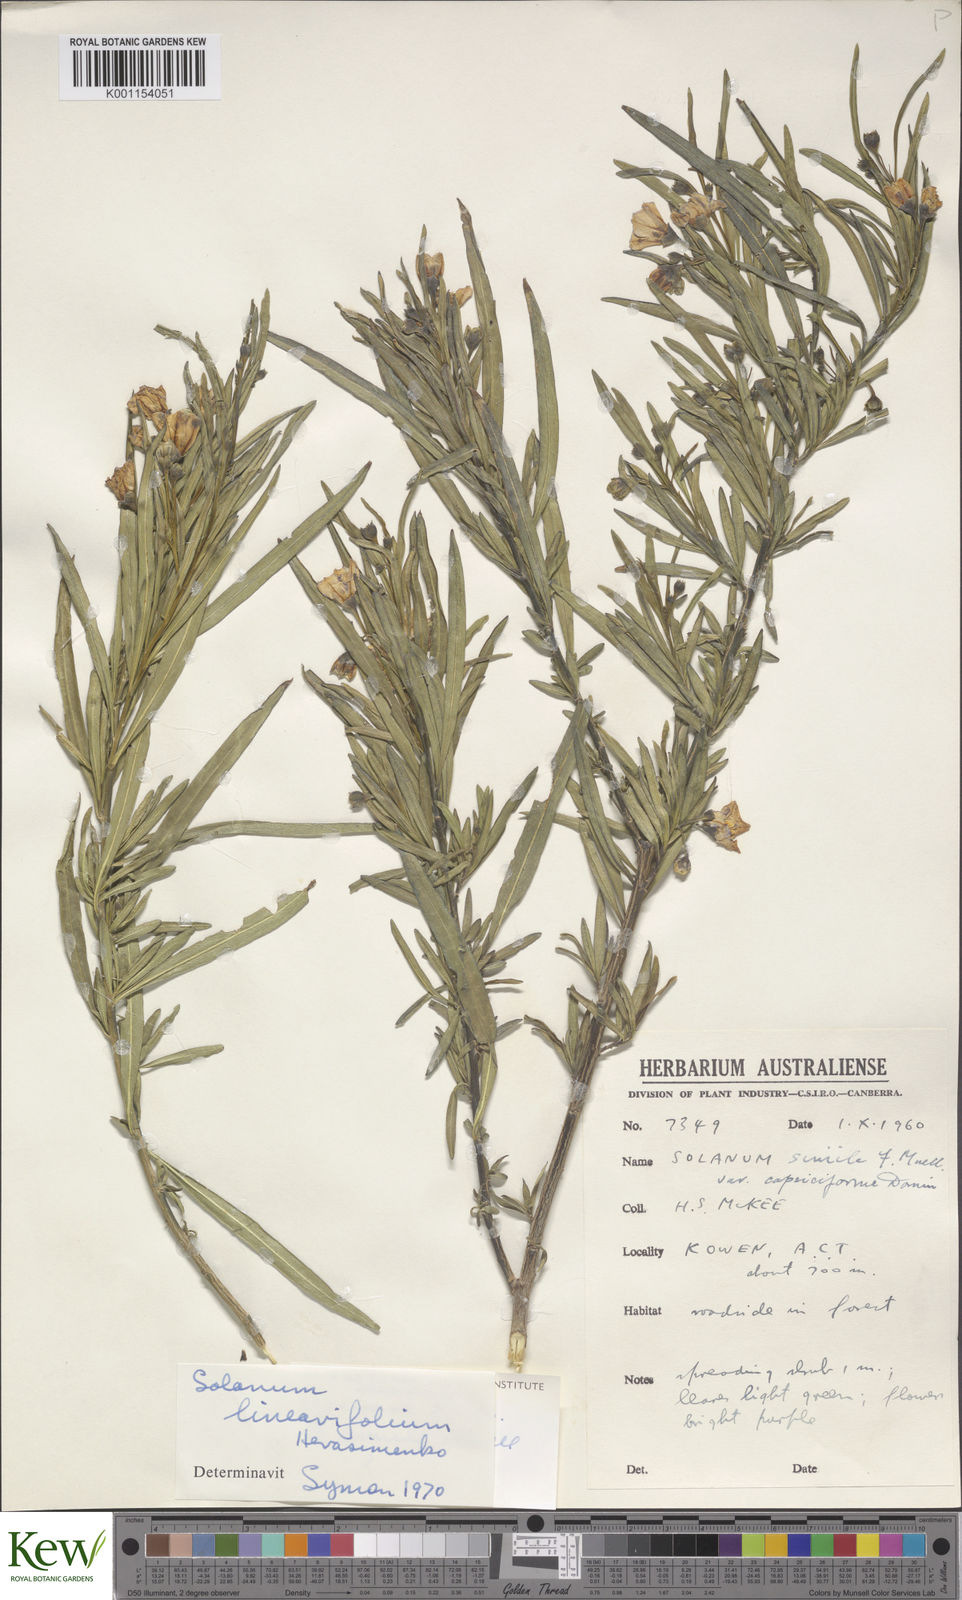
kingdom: Plantae
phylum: Tracheophyta
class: Magnoliopsida
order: Solanales
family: Solanaceae
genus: Solanum
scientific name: Solanum linearifolium
